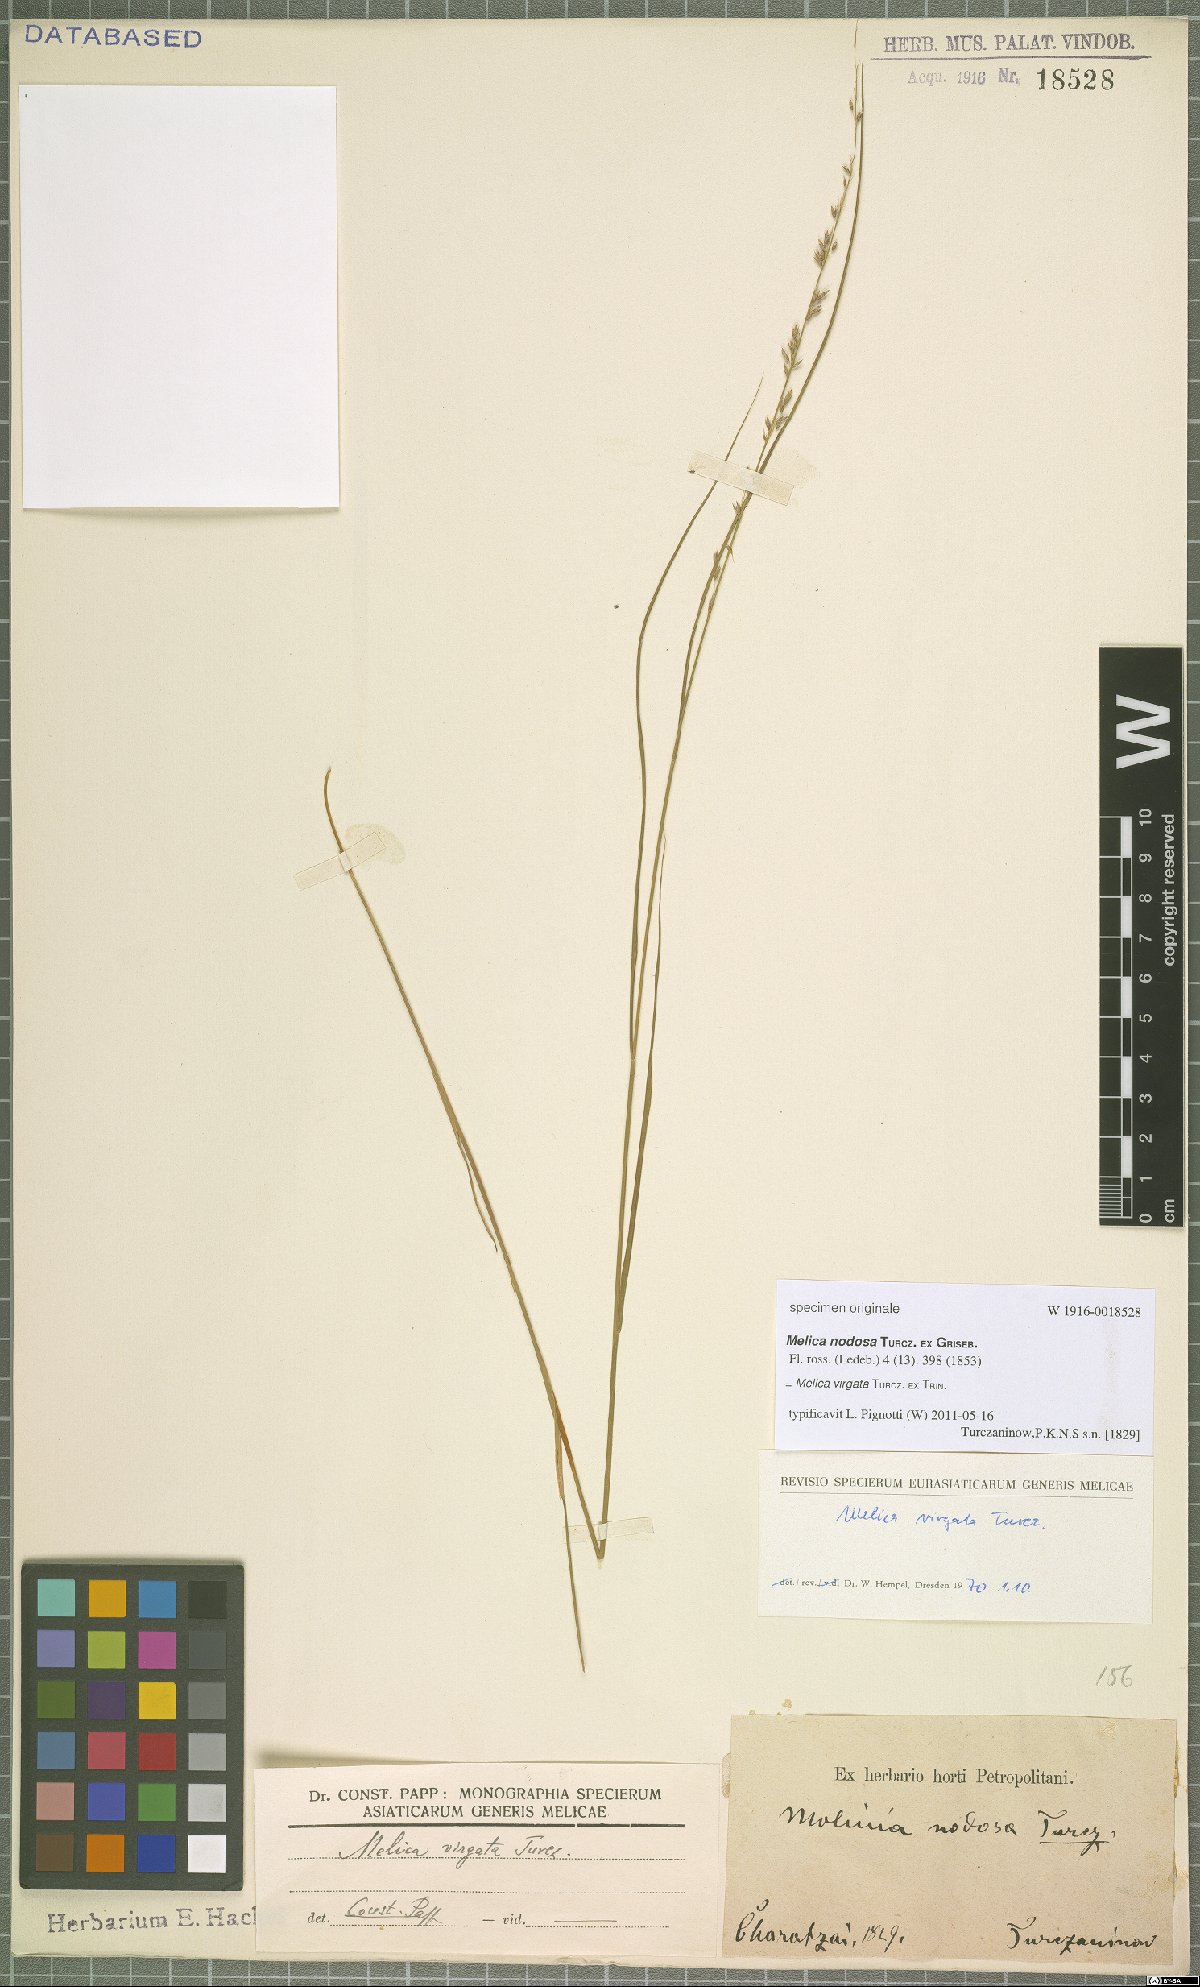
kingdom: Plantae
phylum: Tracheophyta
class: Liliopsida
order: Poales
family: Poaceae
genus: Melica
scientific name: Melica virgata
